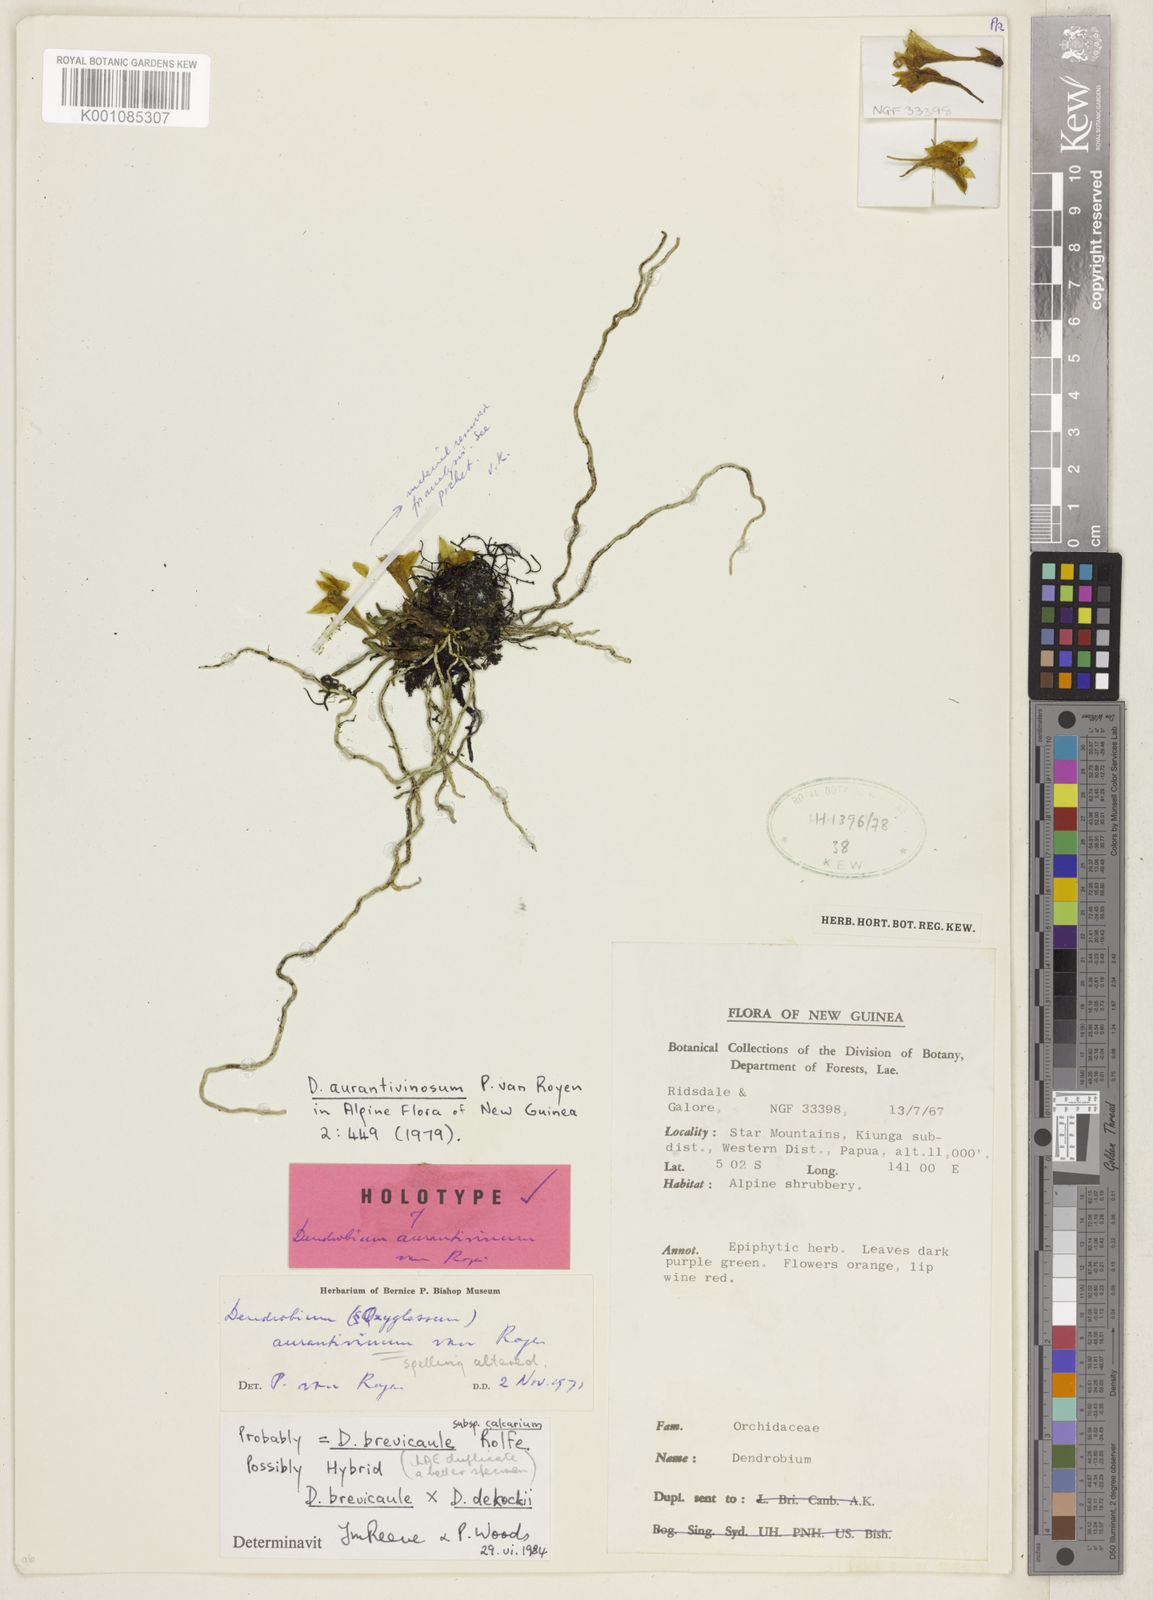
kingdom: Plantae
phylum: Tracheophyta
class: Liliopsida
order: Asparagales
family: Orchidaceae
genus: Dendrobium
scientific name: Dendrobium brevicaule
